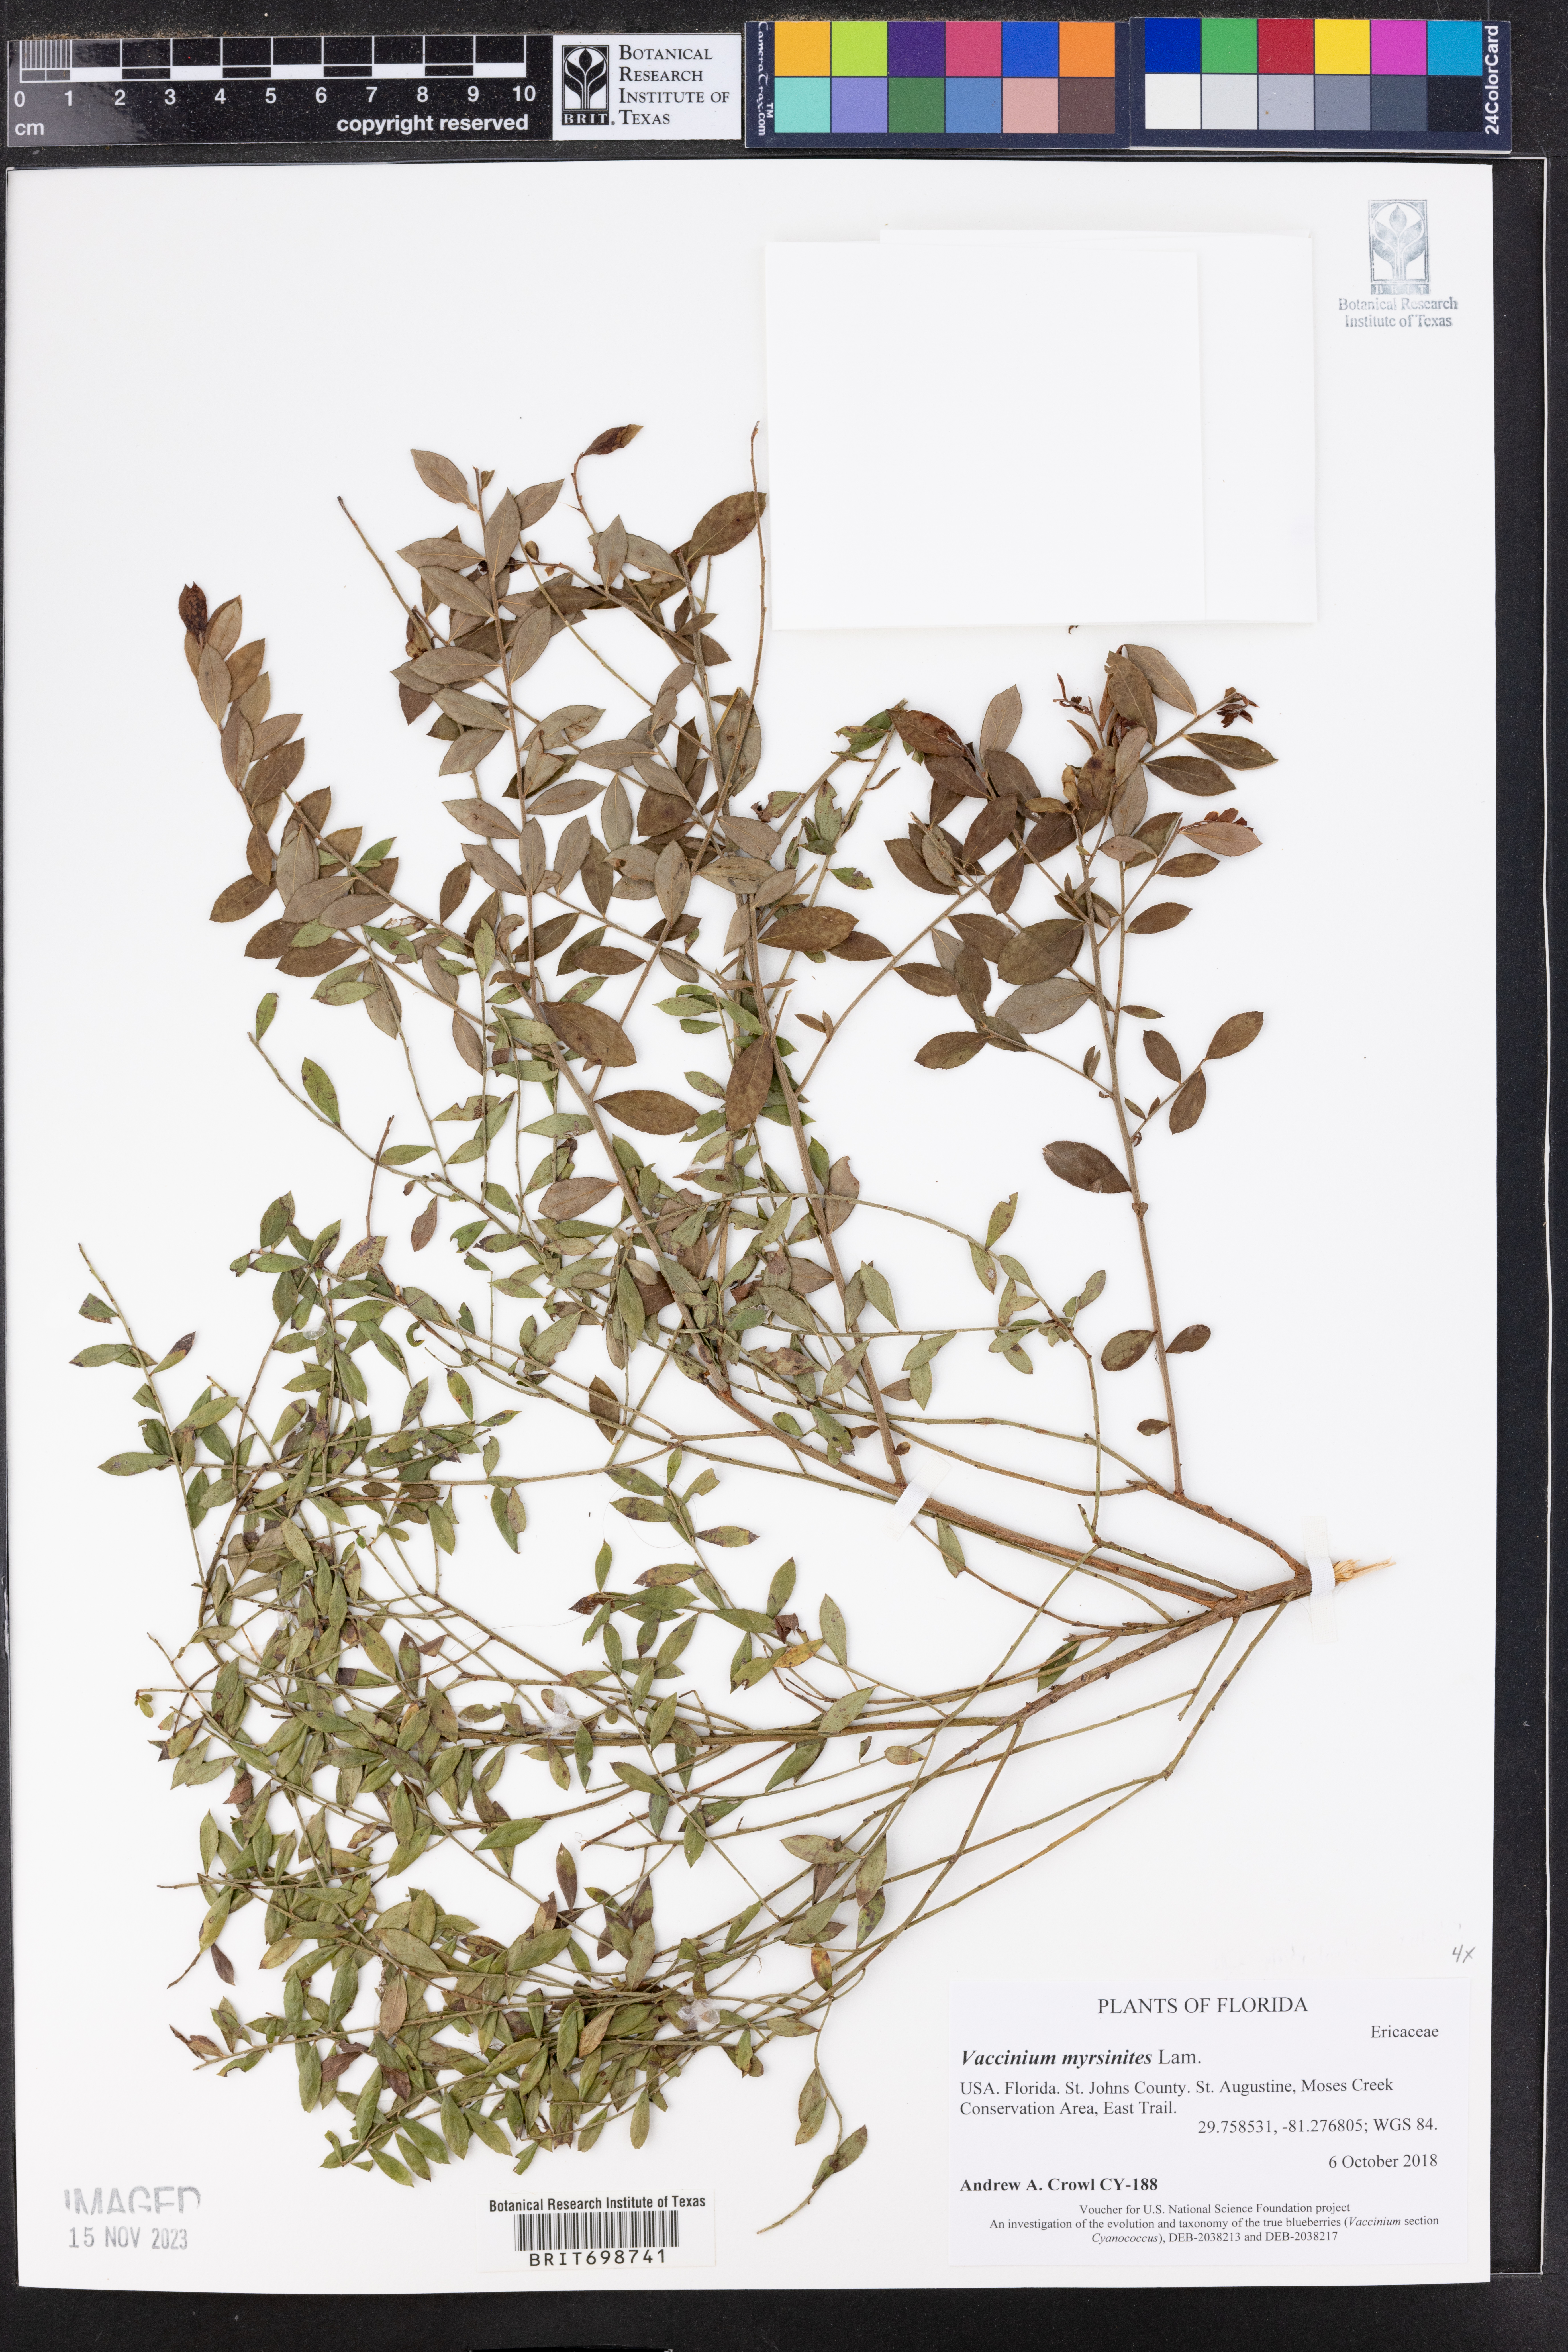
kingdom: Plantae
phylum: Tracheophyta
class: Magnoliopsida
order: Ericales
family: Ericaceae
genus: Vaccinium
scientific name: Vaccinium myrsinites
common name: Evergreen blueberry
